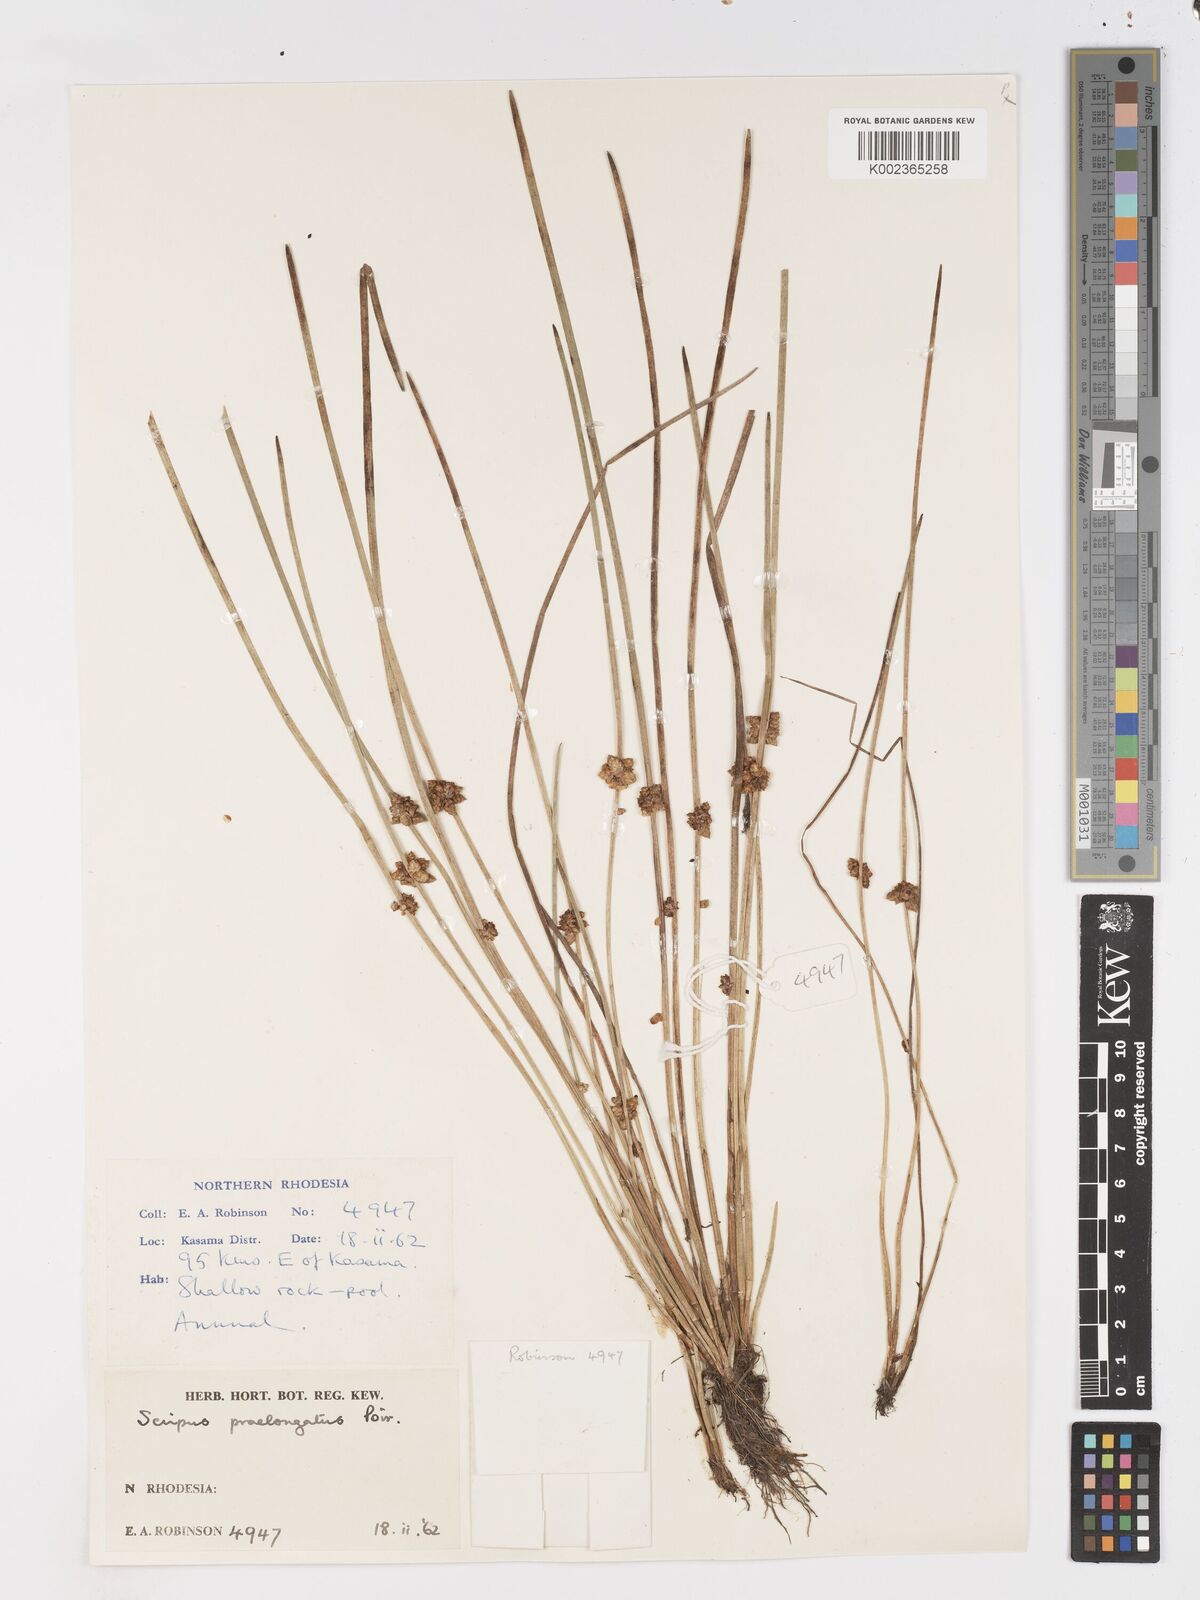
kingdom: Plantae
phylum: Tracheophyta
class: Liliopsida
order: Poales
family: Cyperaceae
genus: Schoenoplectiella
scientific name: Schoenoplectiella senegalensis
